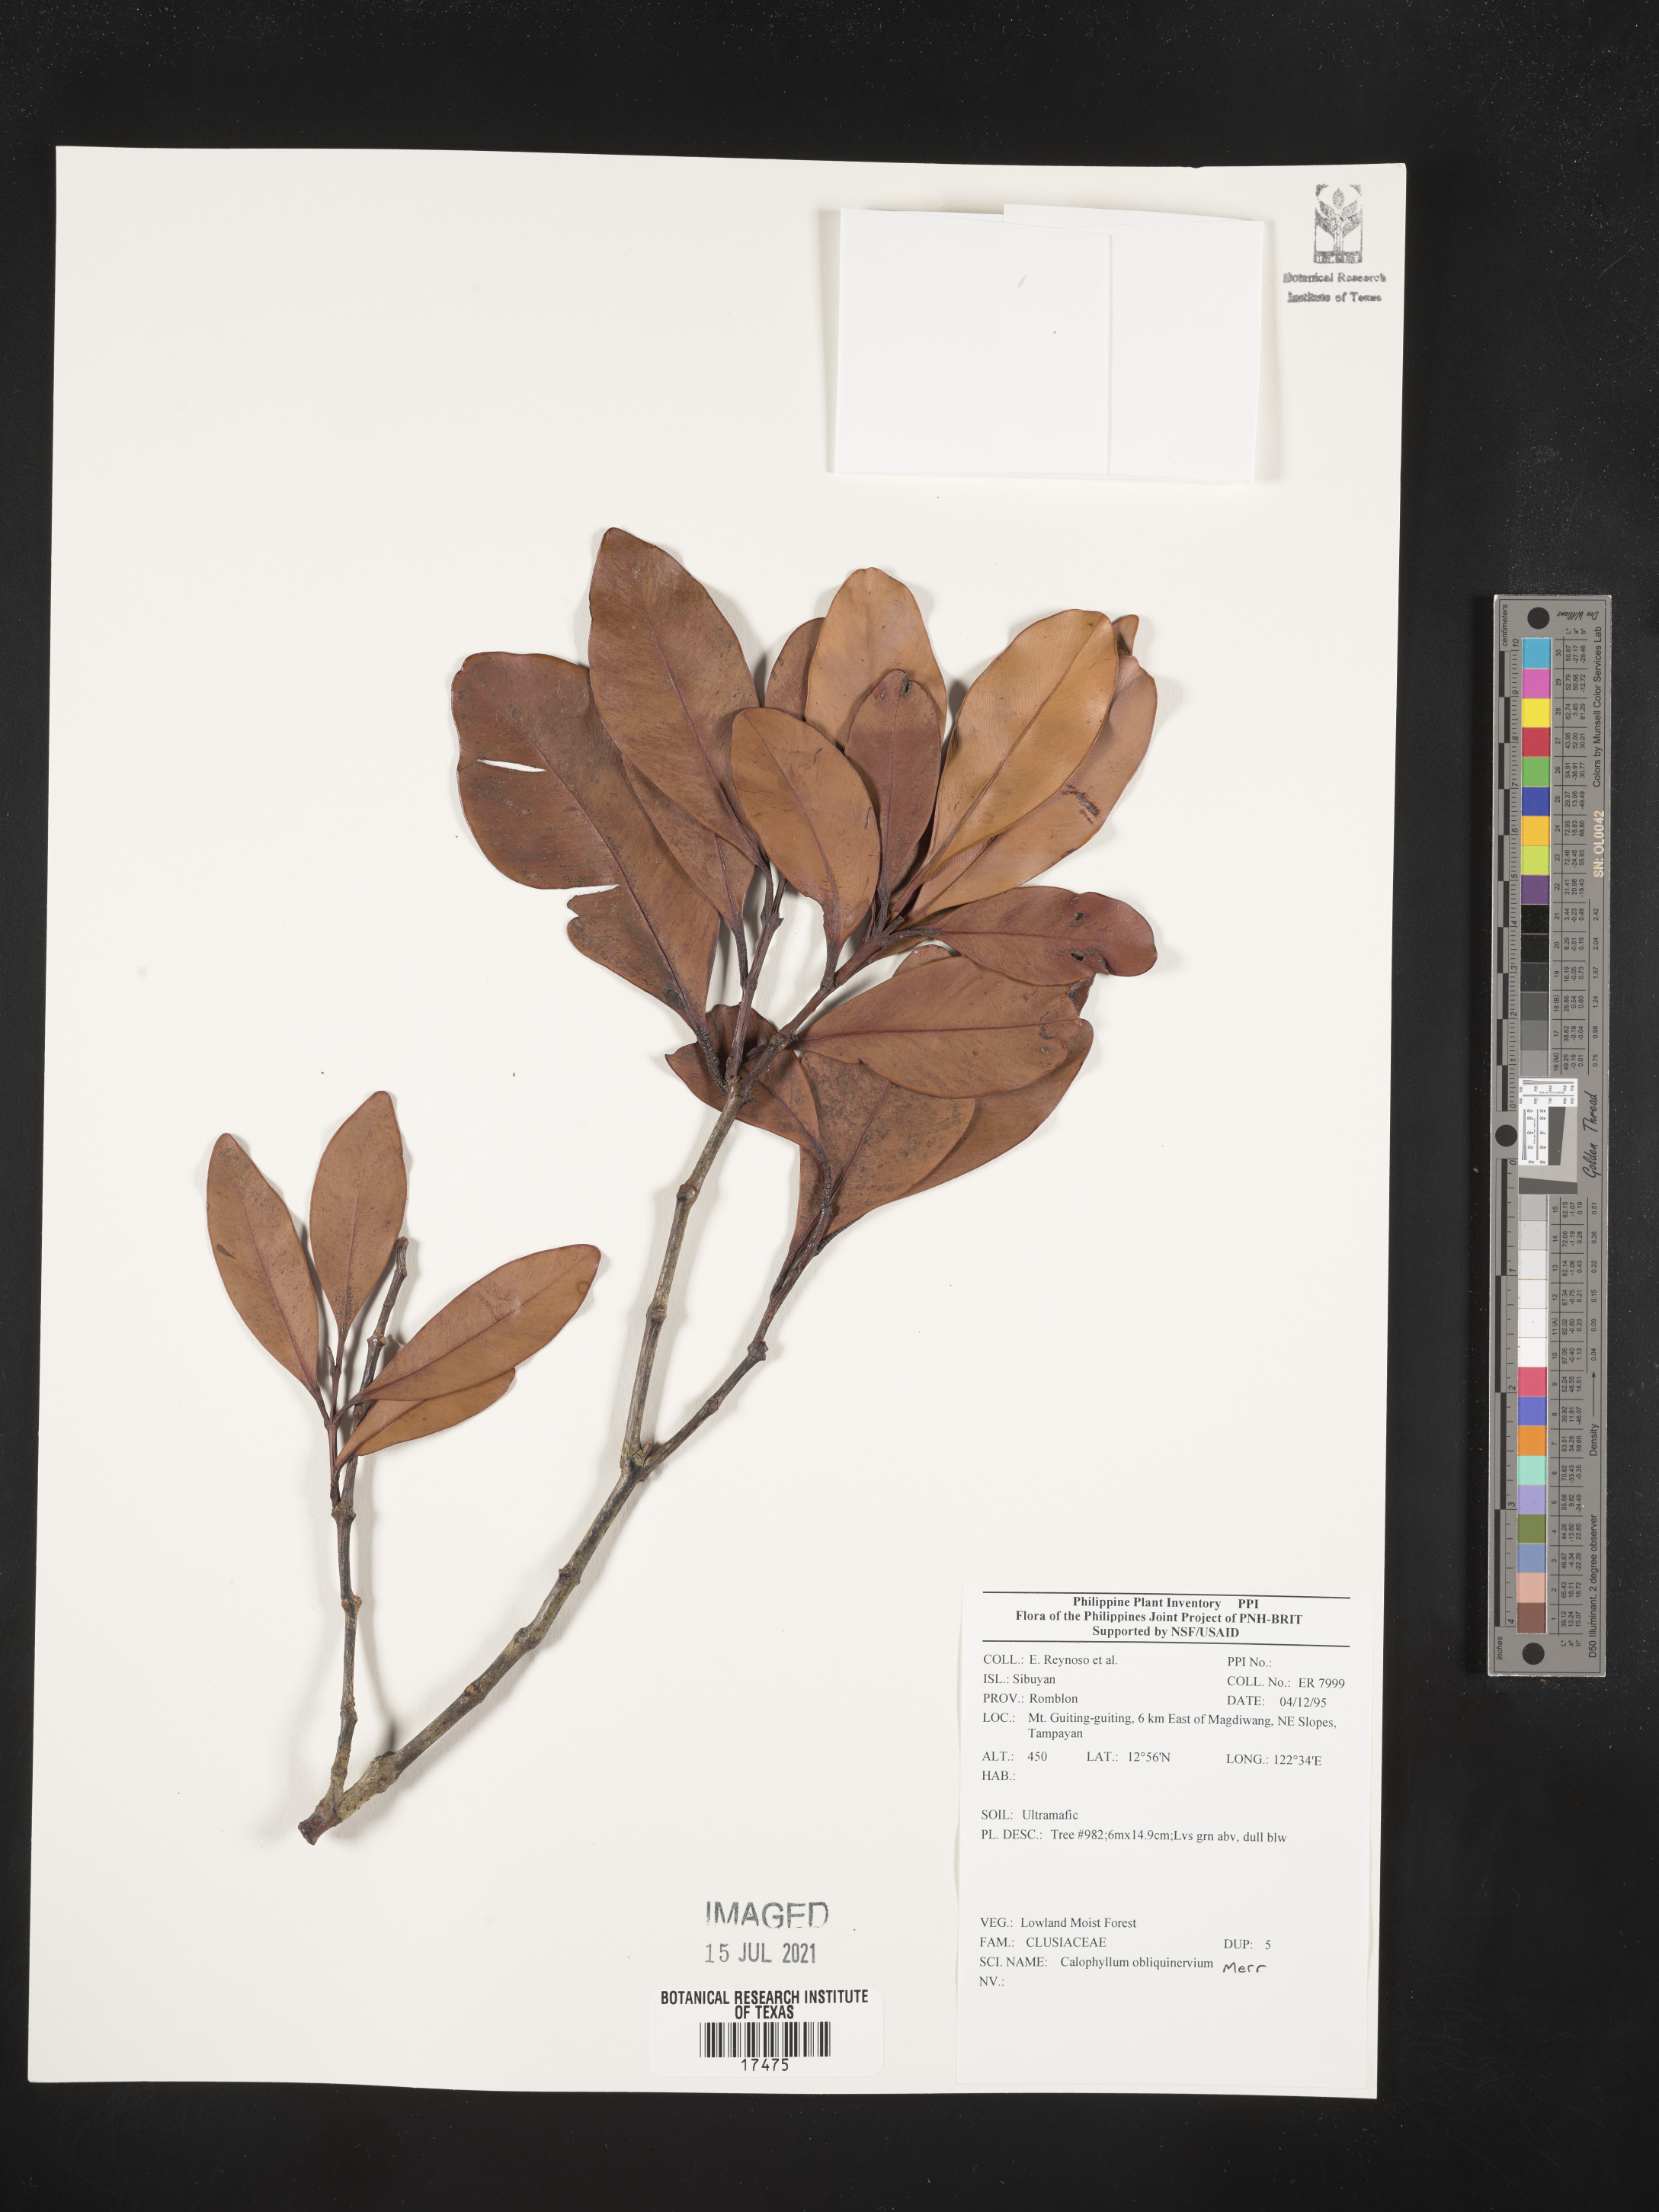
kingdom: Plantae
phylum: Tracheophyta
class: Magnoliopsida
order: Malpighiales
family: Calophyllaceae
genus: Calophyllum
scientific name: Calophyllum obliquinervium
